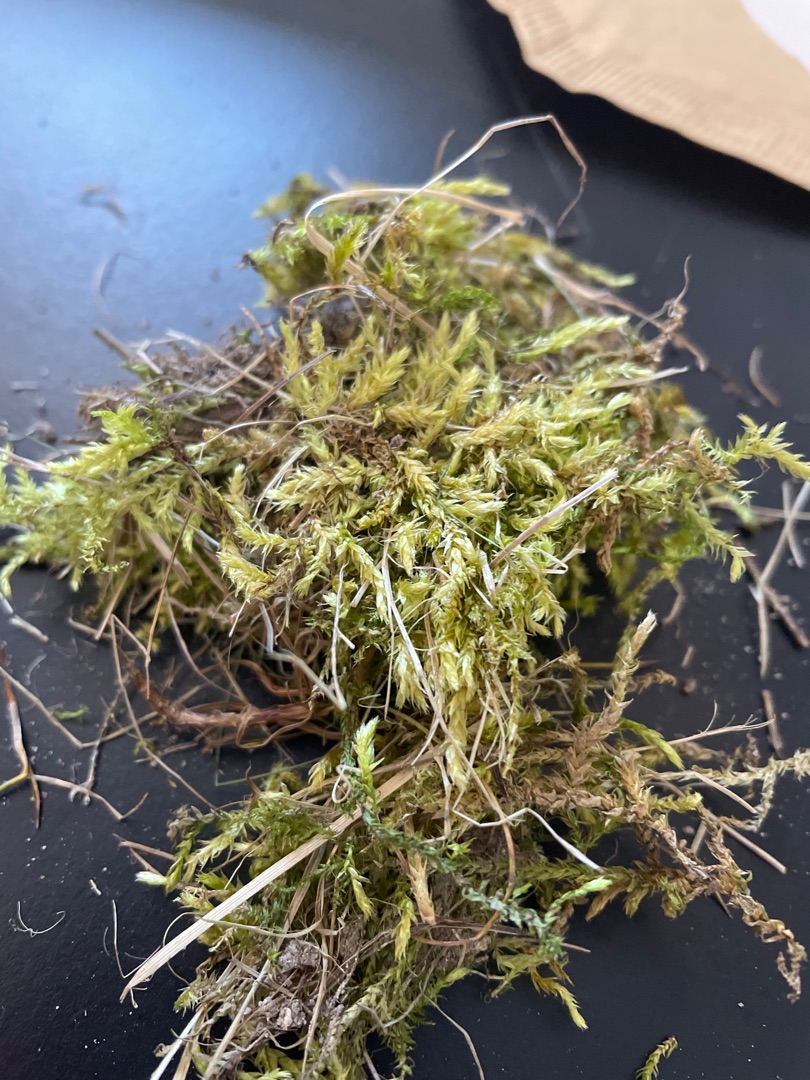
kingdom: Plantae
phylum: Bryophyta
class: Bryopsida
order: Hypnales
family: Brachytheciaceae
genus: Brachythecium
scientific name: Brachythecium rutabulum
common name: Almindelig kortkapsel
